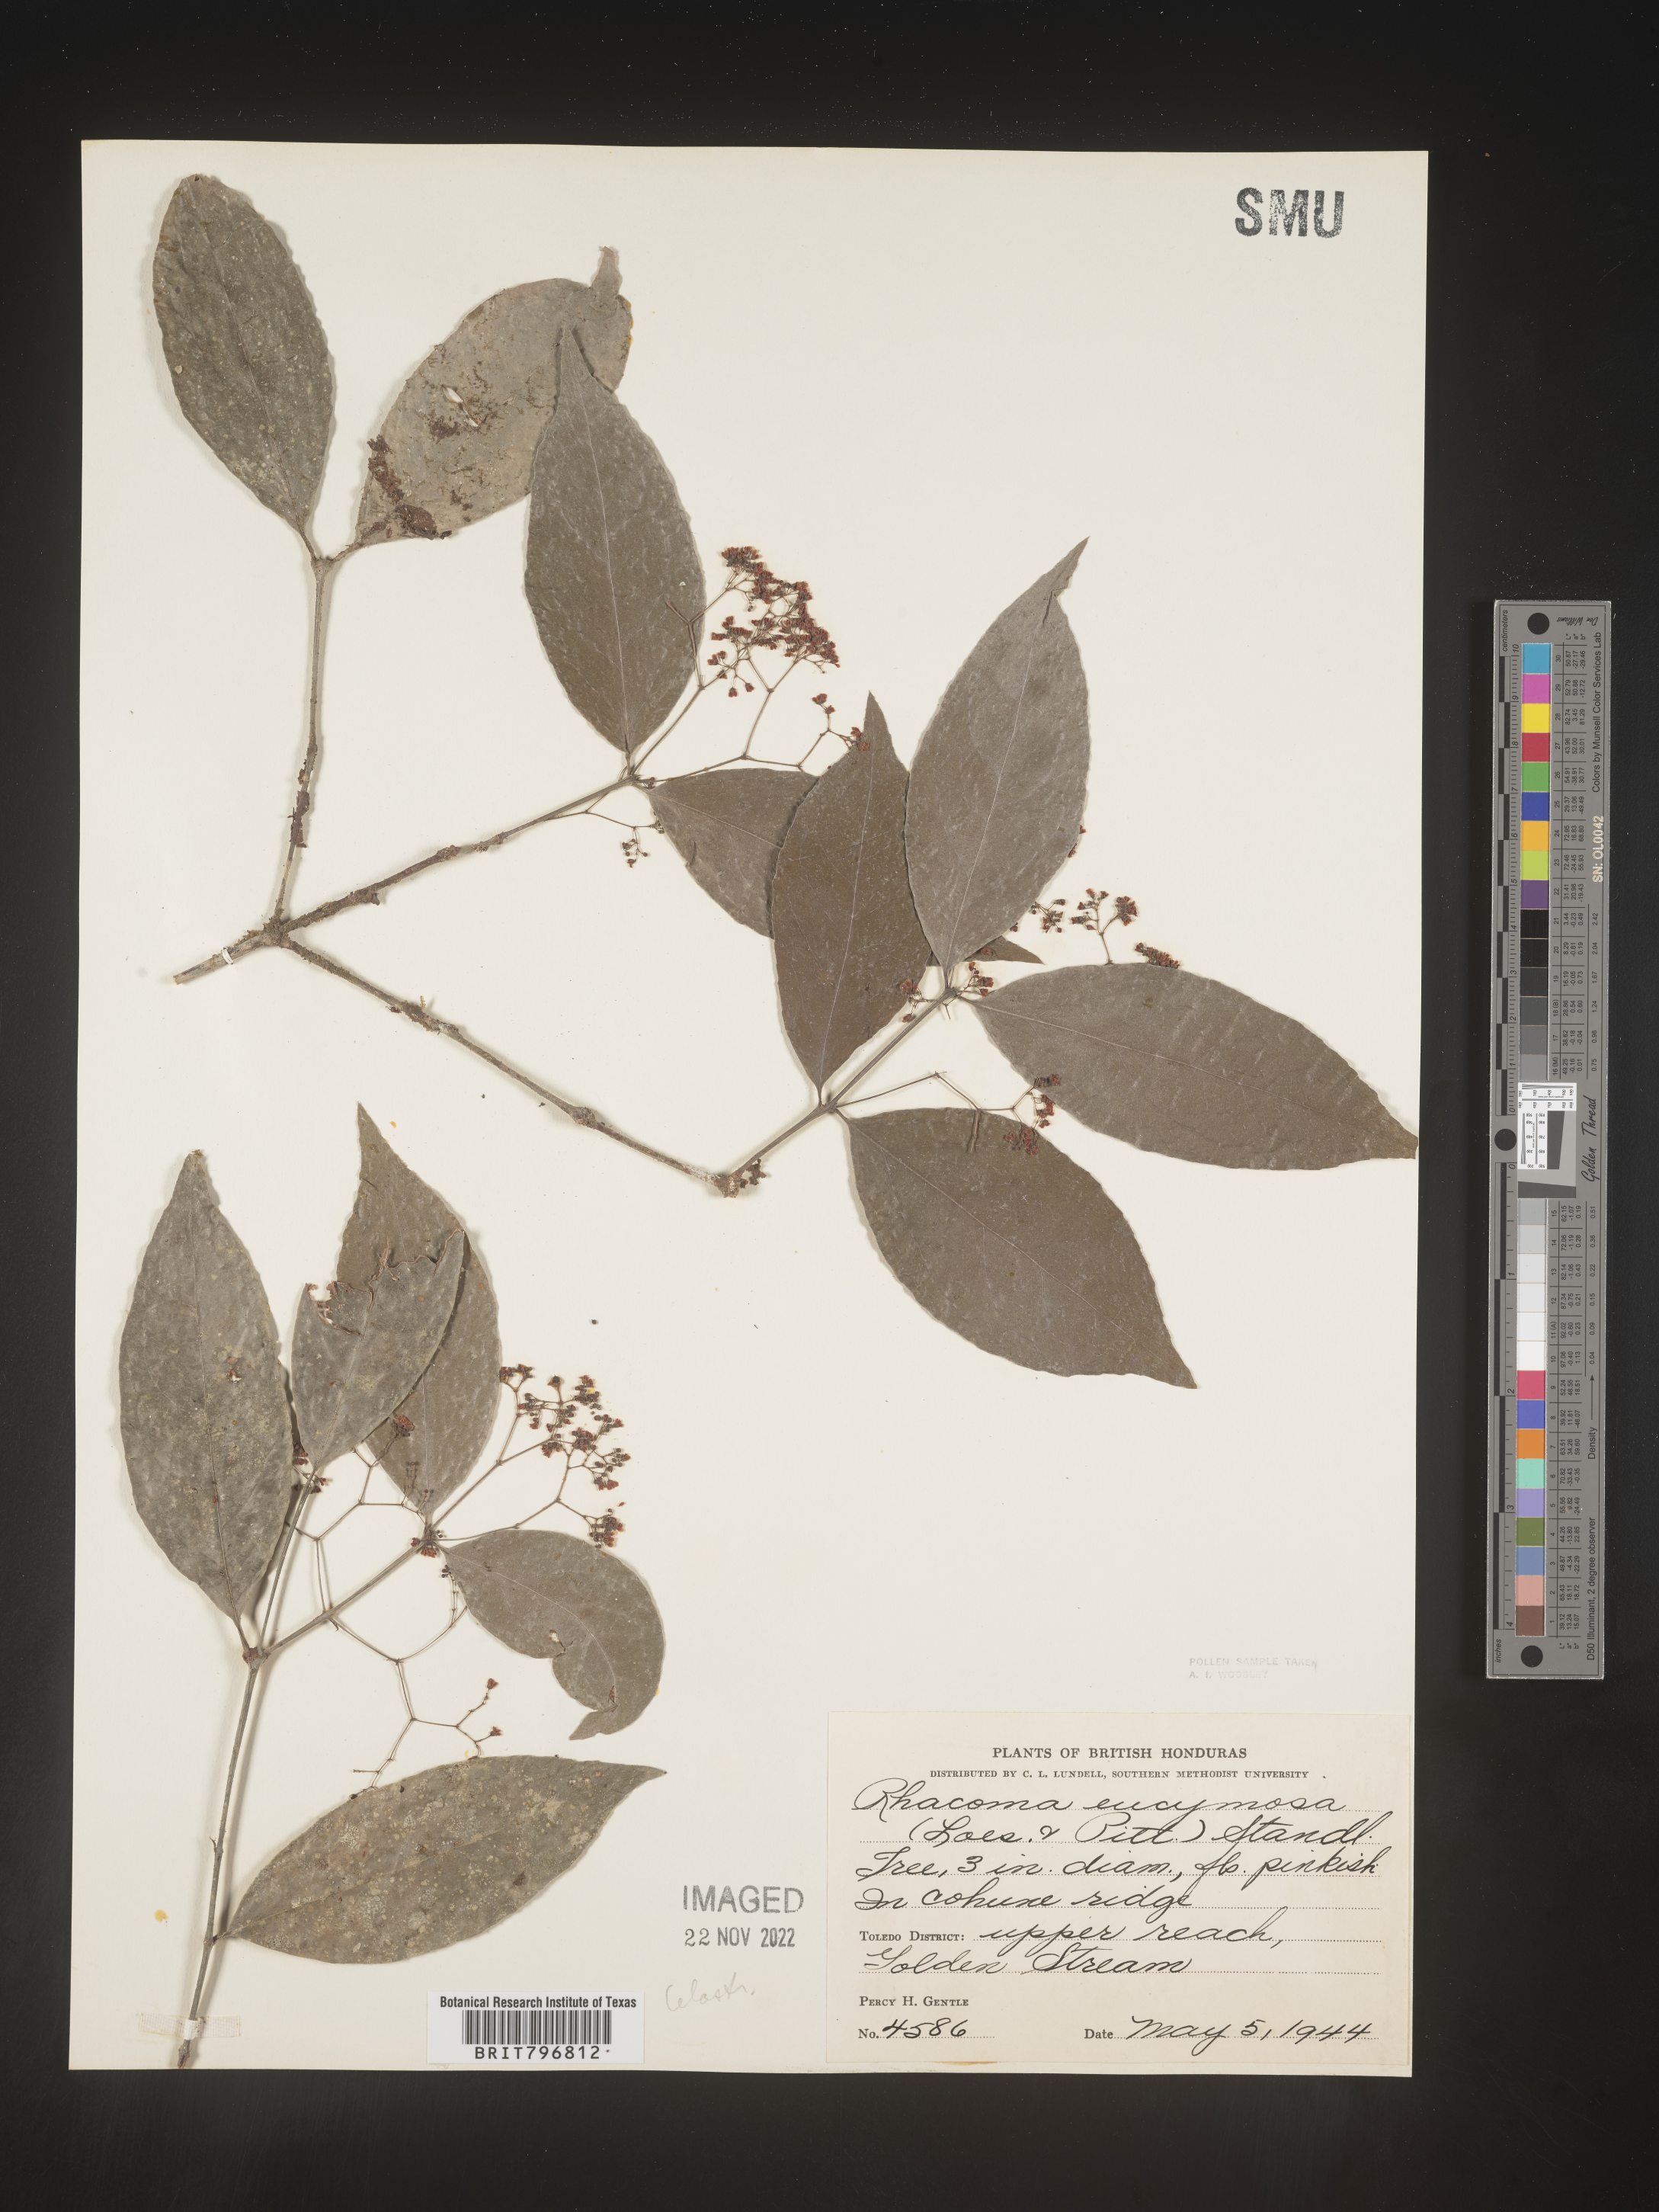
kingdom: Plantae
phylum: Tracheophyta
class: Magnoliopsida
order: Celastrales
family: Celastraceae
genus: Crossopetalum
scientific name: Crossopetalum
